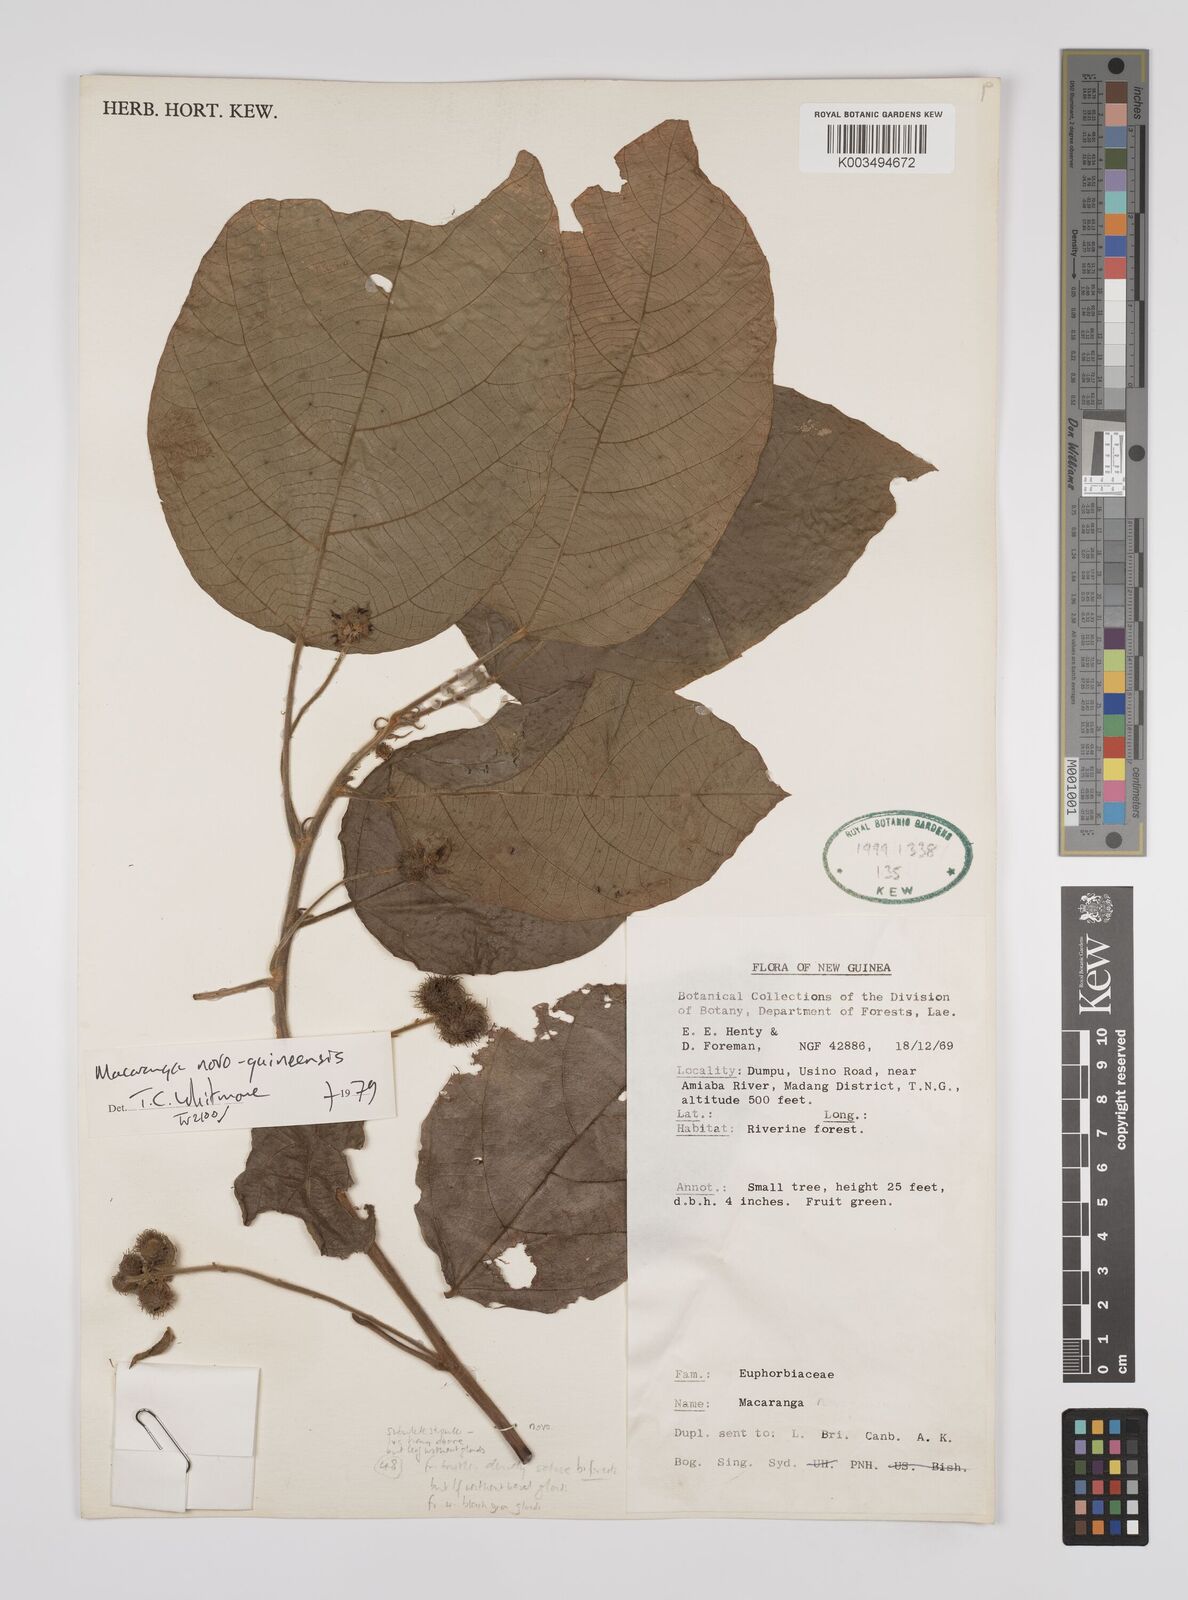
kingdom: Plantae
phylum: Tracheophyta
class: Magnoliopsida
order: Malpighiales
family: Euphorbiaceae
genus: Macaranga
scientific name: Macaranga novoguineensis
